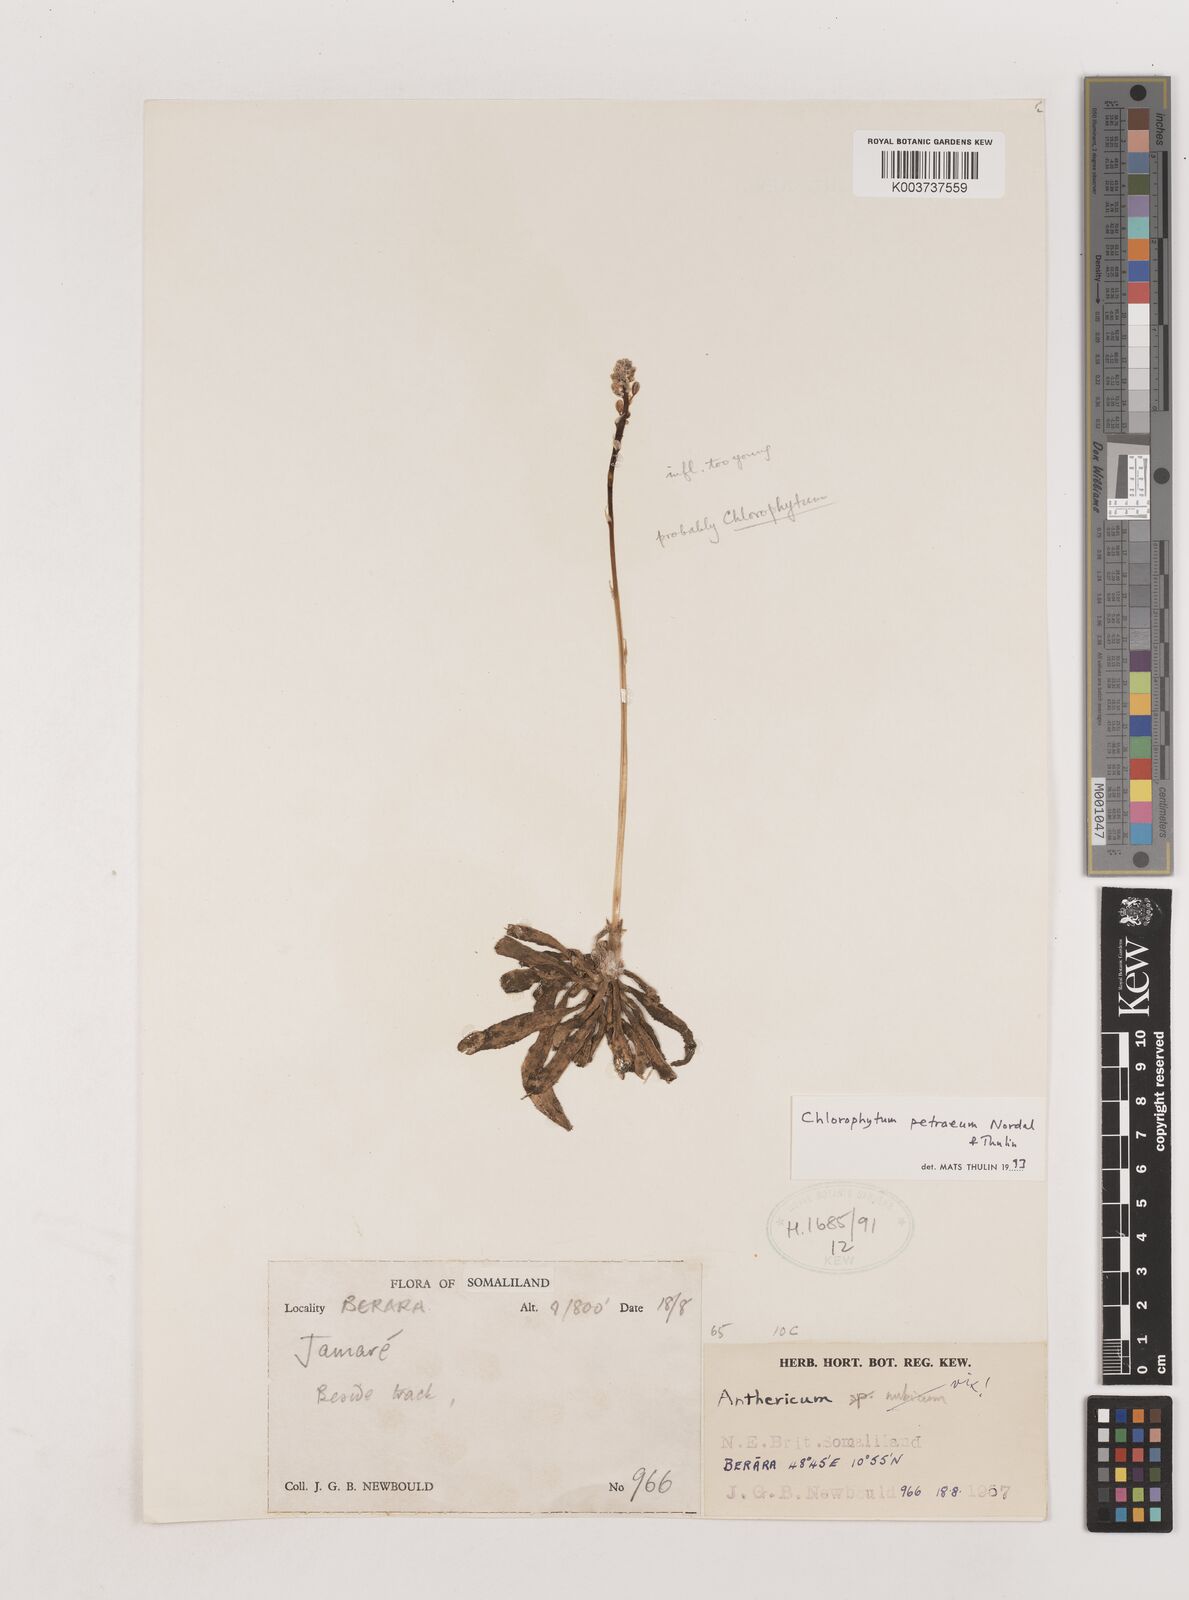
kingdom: Plantae
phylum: Tracheophyta
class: Liliopsida
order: Asparagales
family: Asparagaceae
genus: Chlorophytum
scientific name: Chlorophytum petraeum
